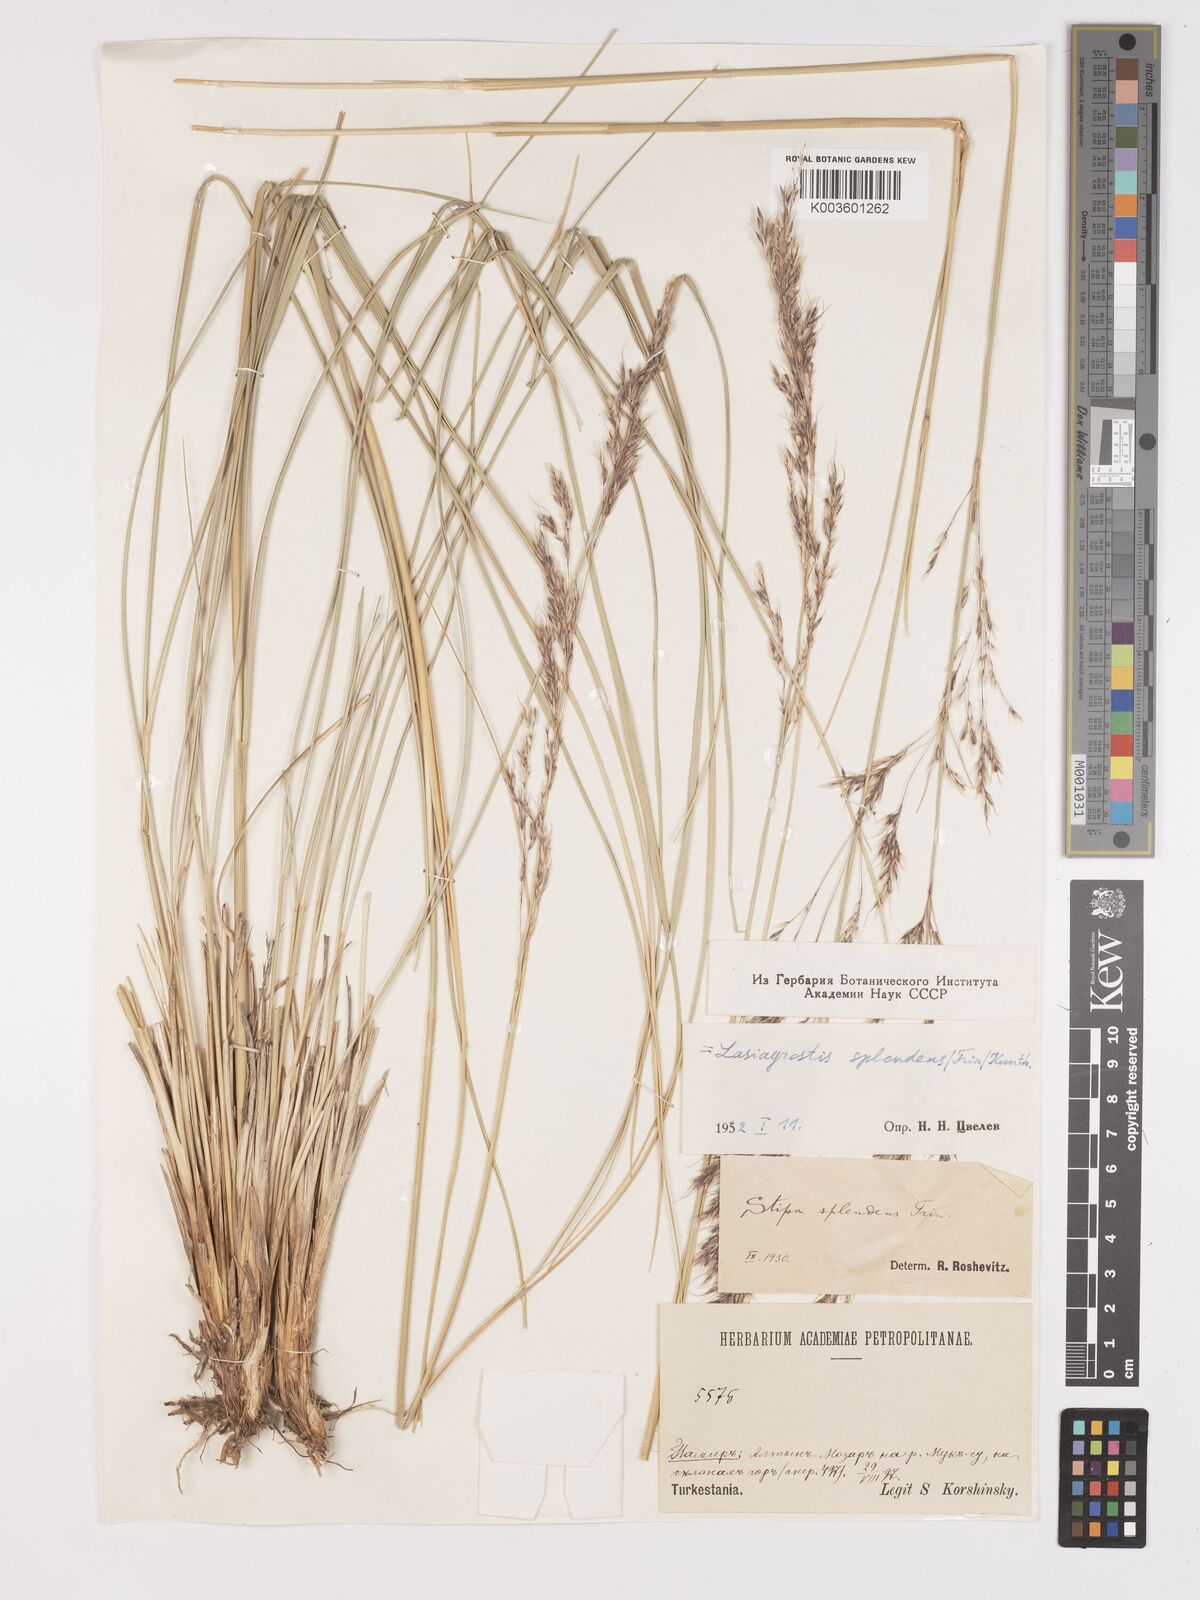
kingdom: Plantae
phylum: Tracheophyta
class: Liliopsida
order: Poales
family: Poaceae
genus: Neotrinia
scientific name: Neotrinia splendens
